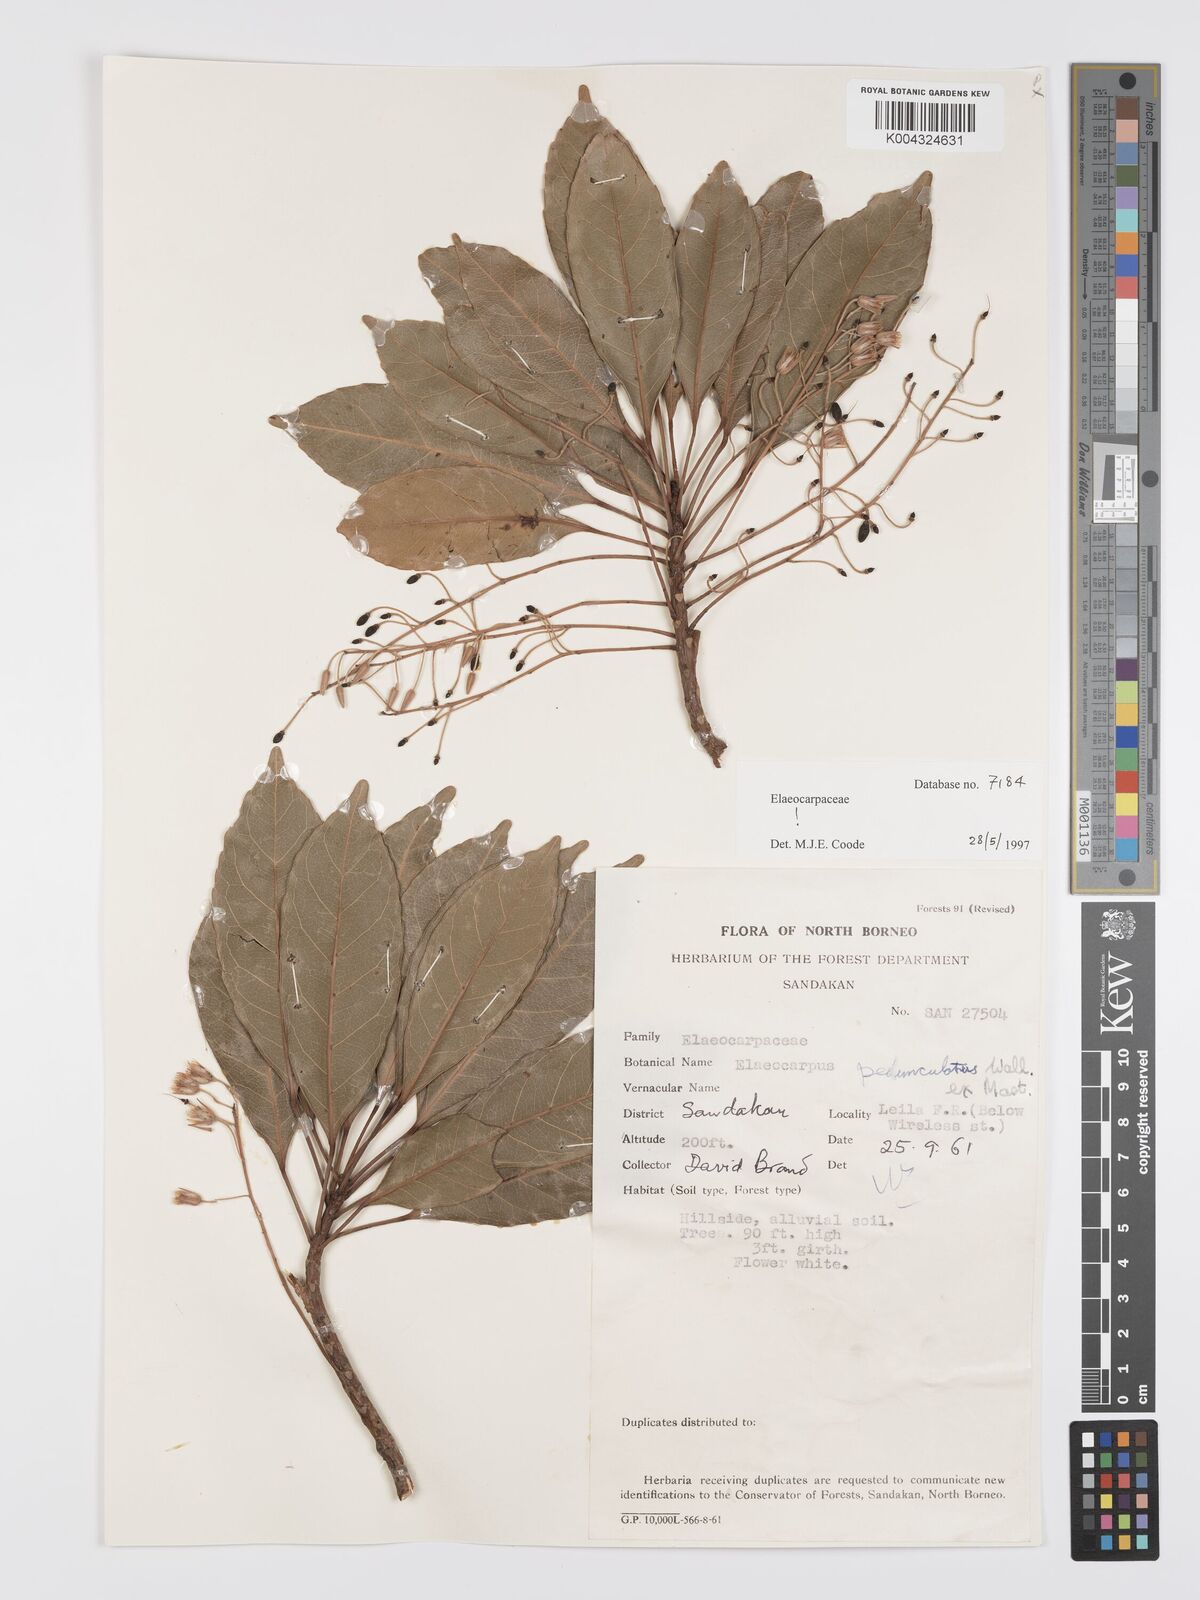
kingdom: Plantae
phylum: Tracheophyta
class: Magnoliopsida
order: Oxalidales
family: Elaeocarpaceae
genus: Elaeocarpus
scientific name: Elaeocarpus pedunculatus
